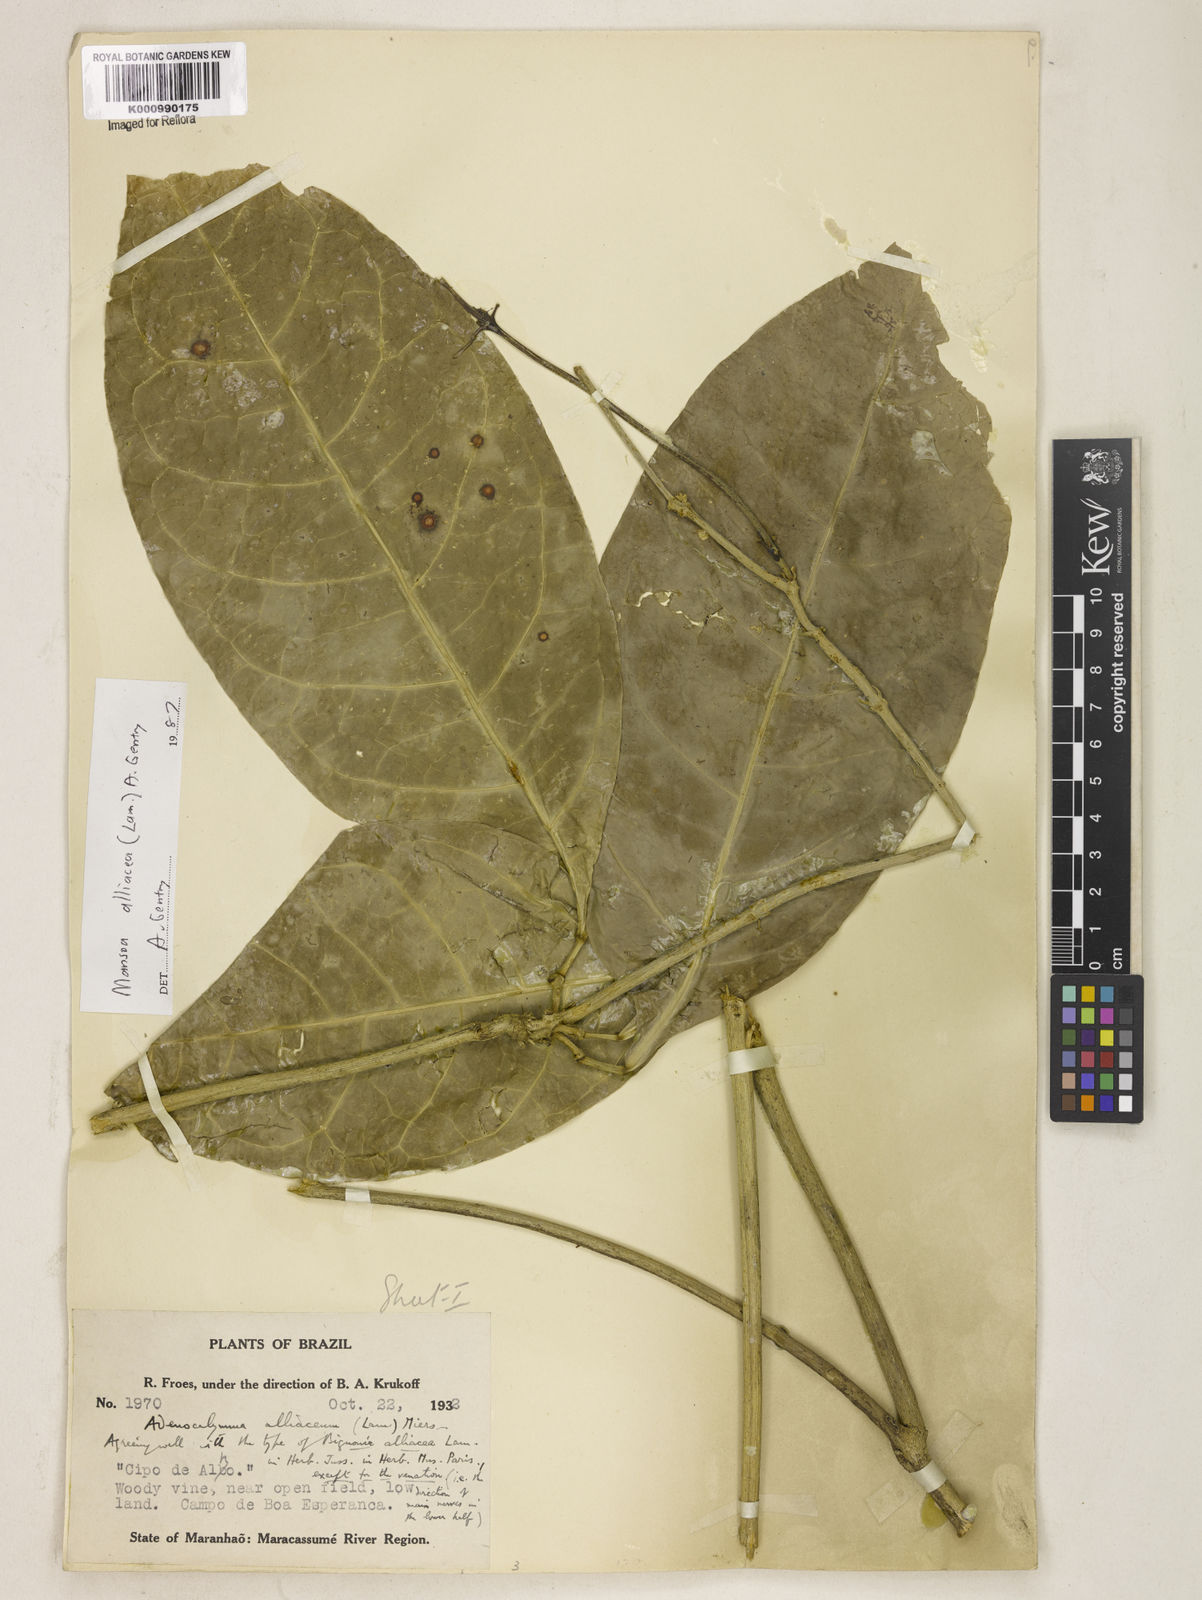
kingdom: Plantae
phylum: Tracheophyta
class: Magnoliopsida
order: Lamiales
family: Bignoniaceae
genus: Mansoa
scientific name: Mansoa alliacea
